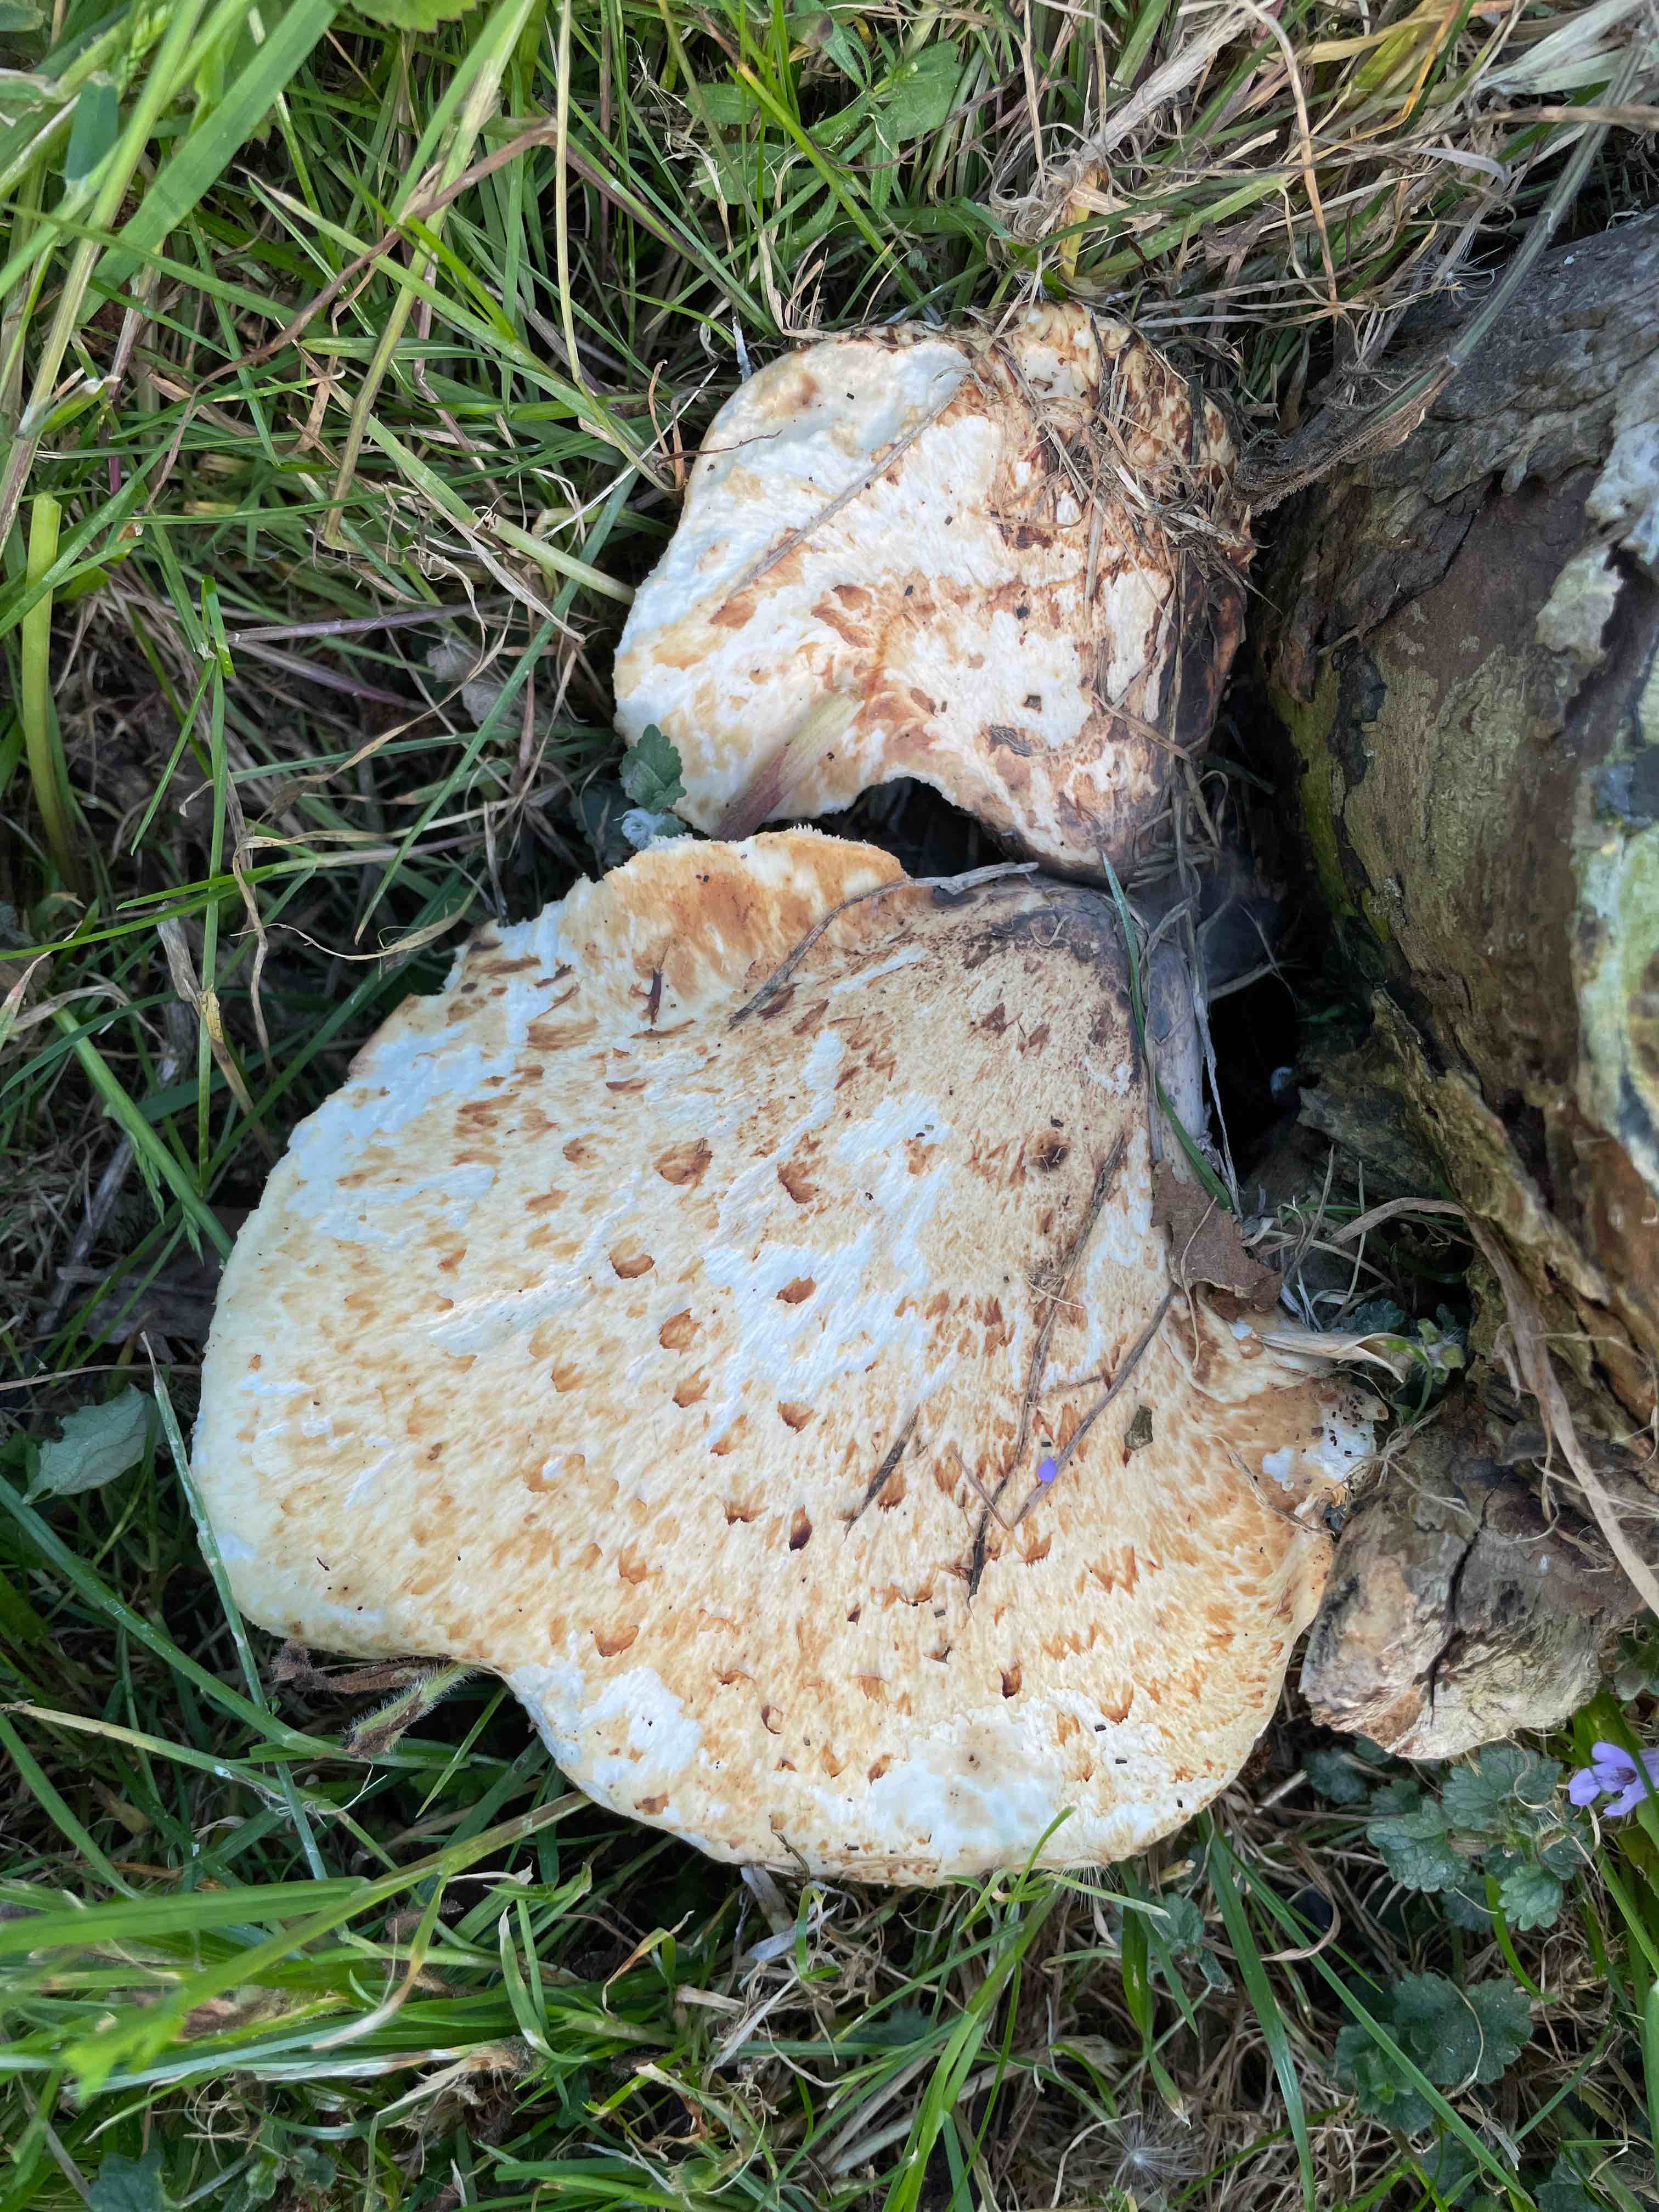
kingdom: Fungi
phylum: Basidiomycota
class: Agaricomycetes
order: Polyporales
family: Polyporaceae
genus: Cerioporus
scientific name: Cerioporus squamosus
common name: skællet stilkporesvamp
